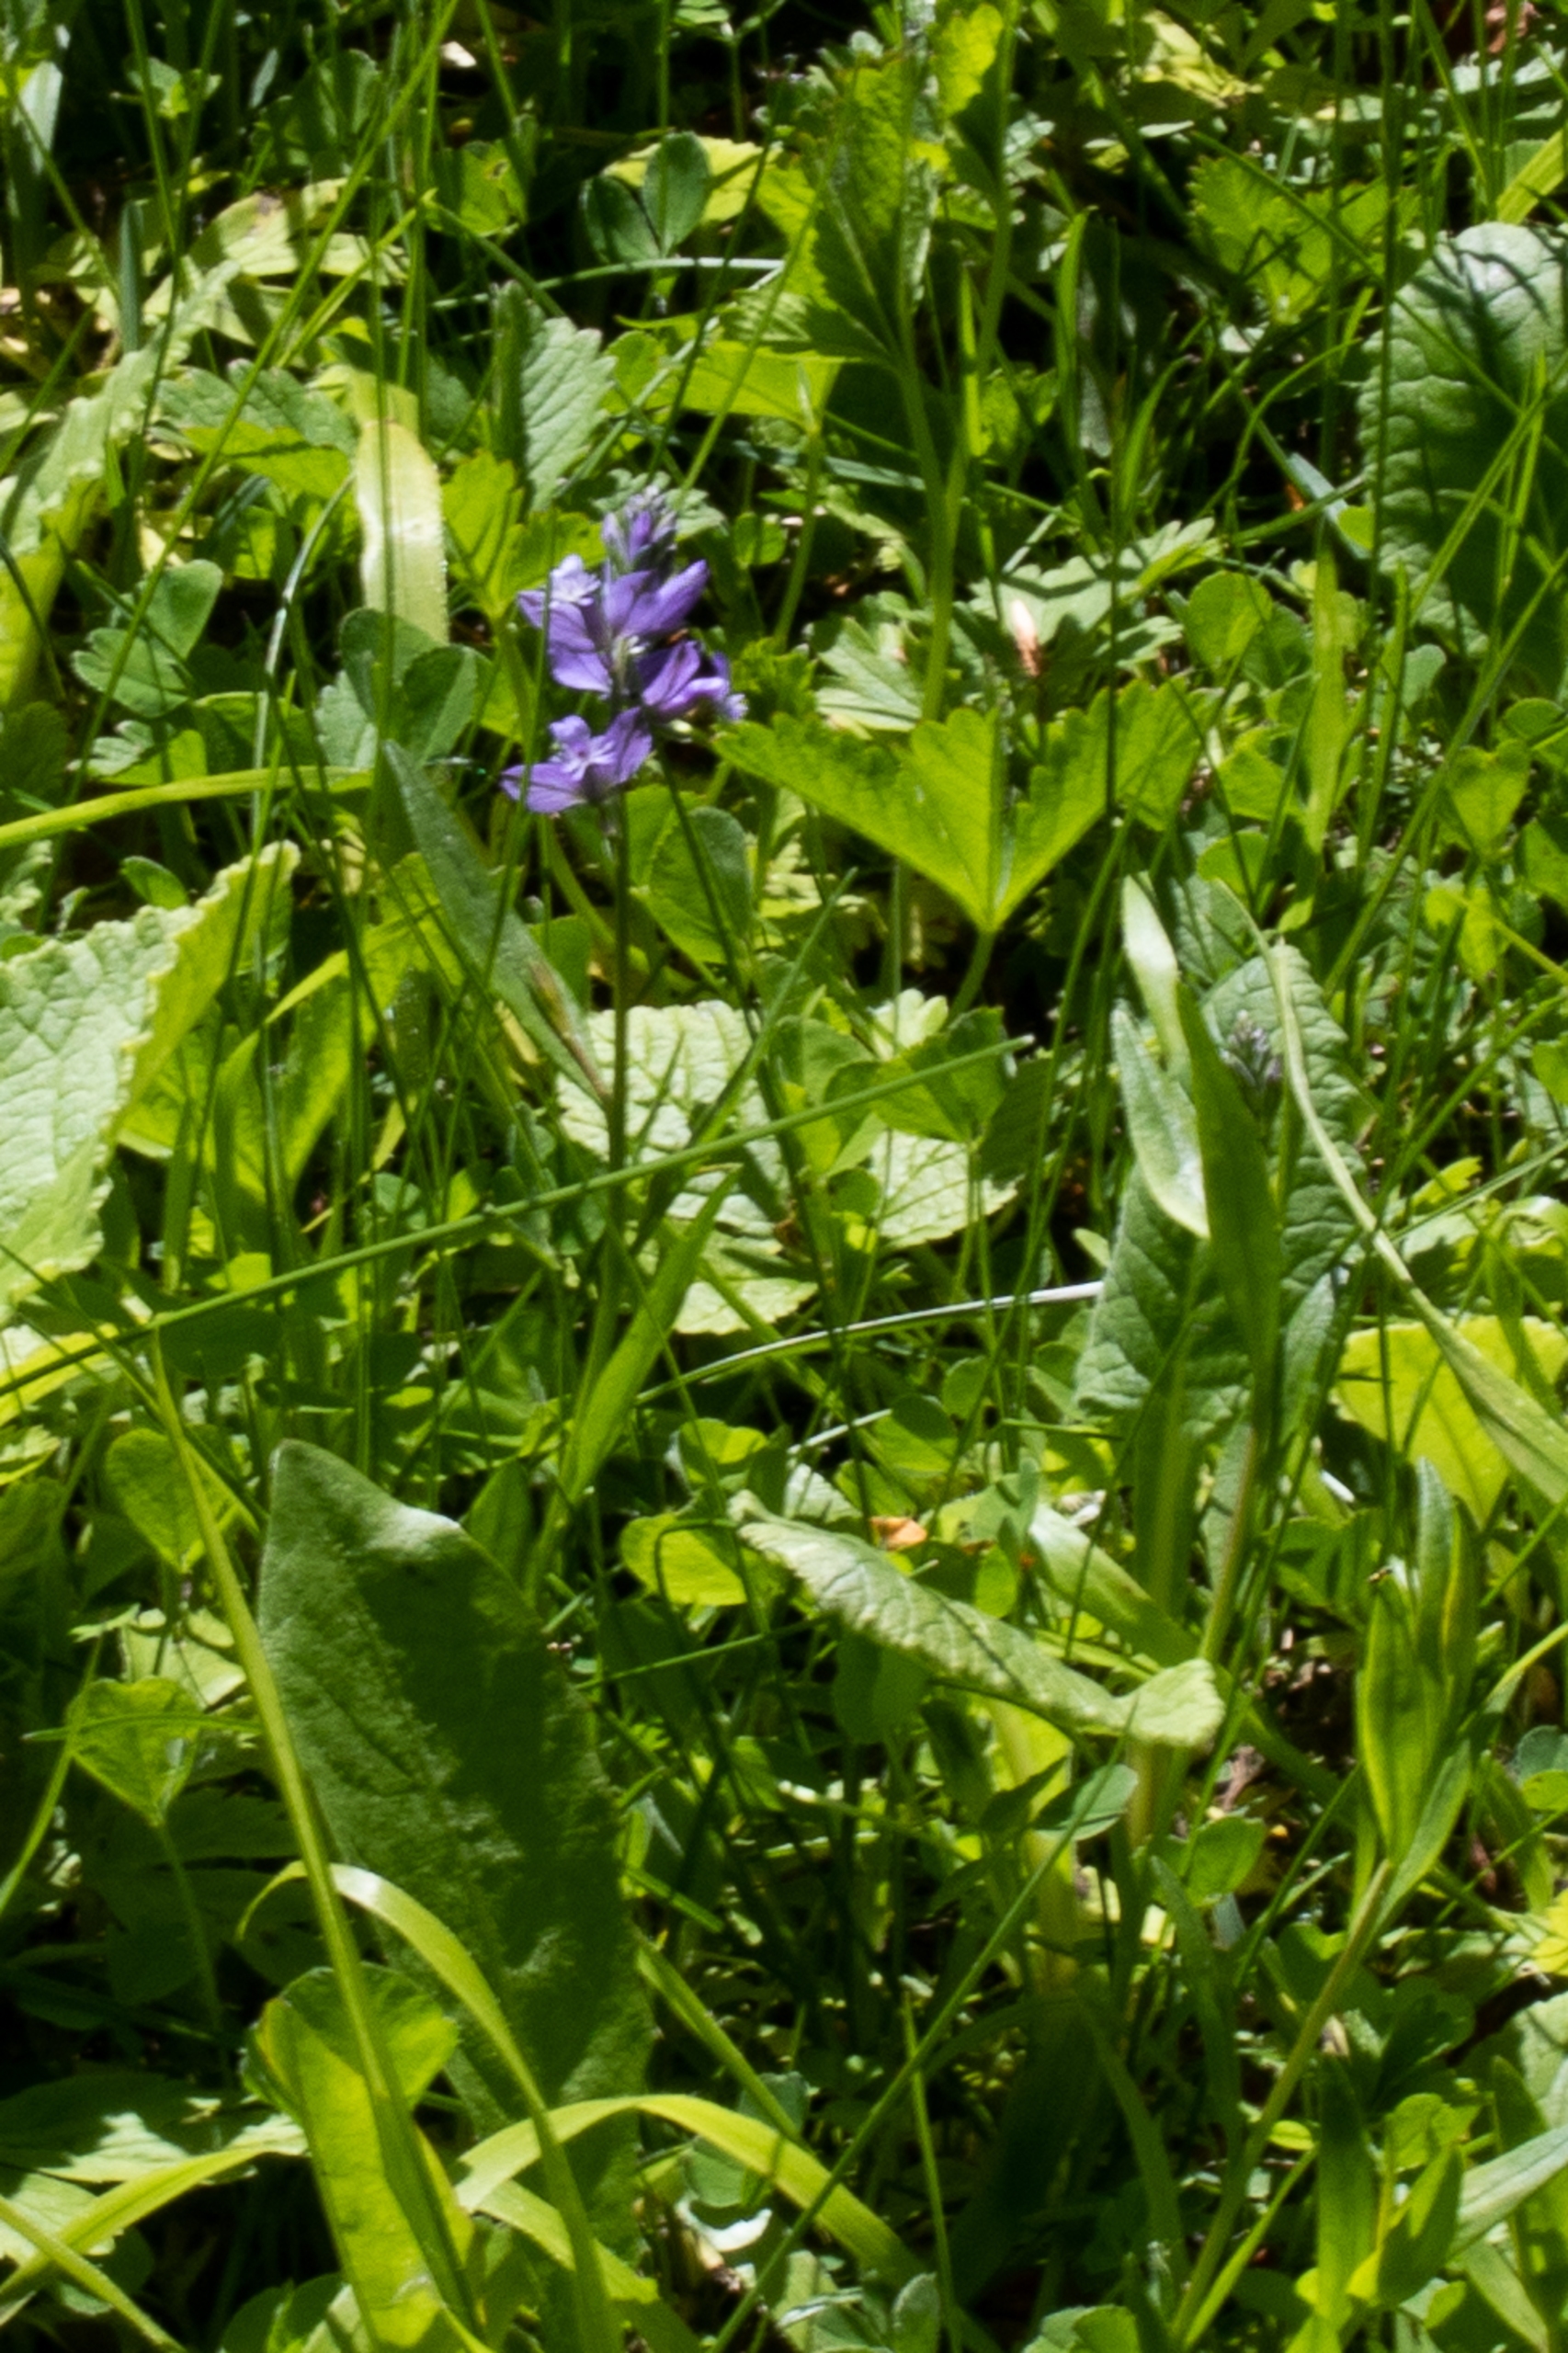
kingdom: Plantae
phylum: Tracheophyta
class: Magnoliopsida
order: Fabales
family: Polygalaceae
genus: Polygala
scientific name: Polygala vulgaris
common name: Almindelig mælkeurt
